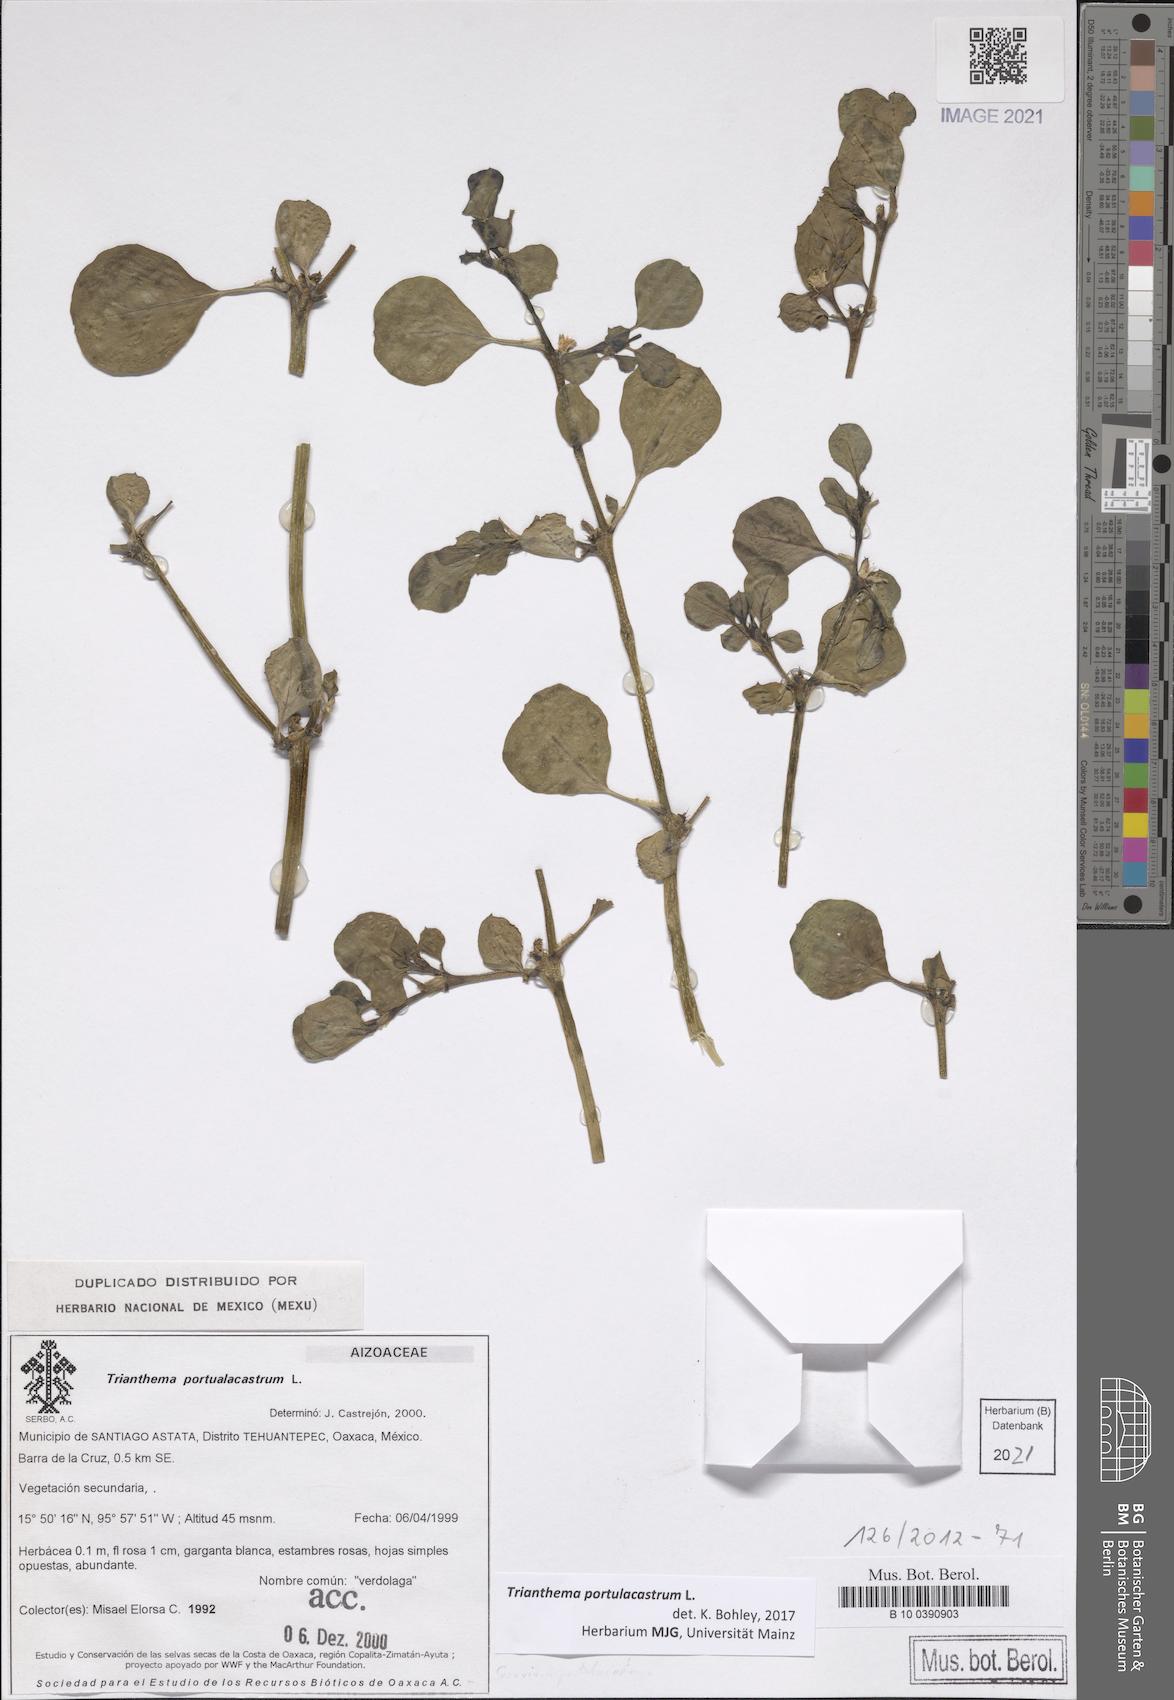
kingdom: Plantae
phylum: Tracheophyta
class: Magnoliopsida
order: Caryophyllales
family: Aizoaceae
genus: Trianthema
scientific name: Trianthema portulacastrum
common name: Desert horsepurslane
